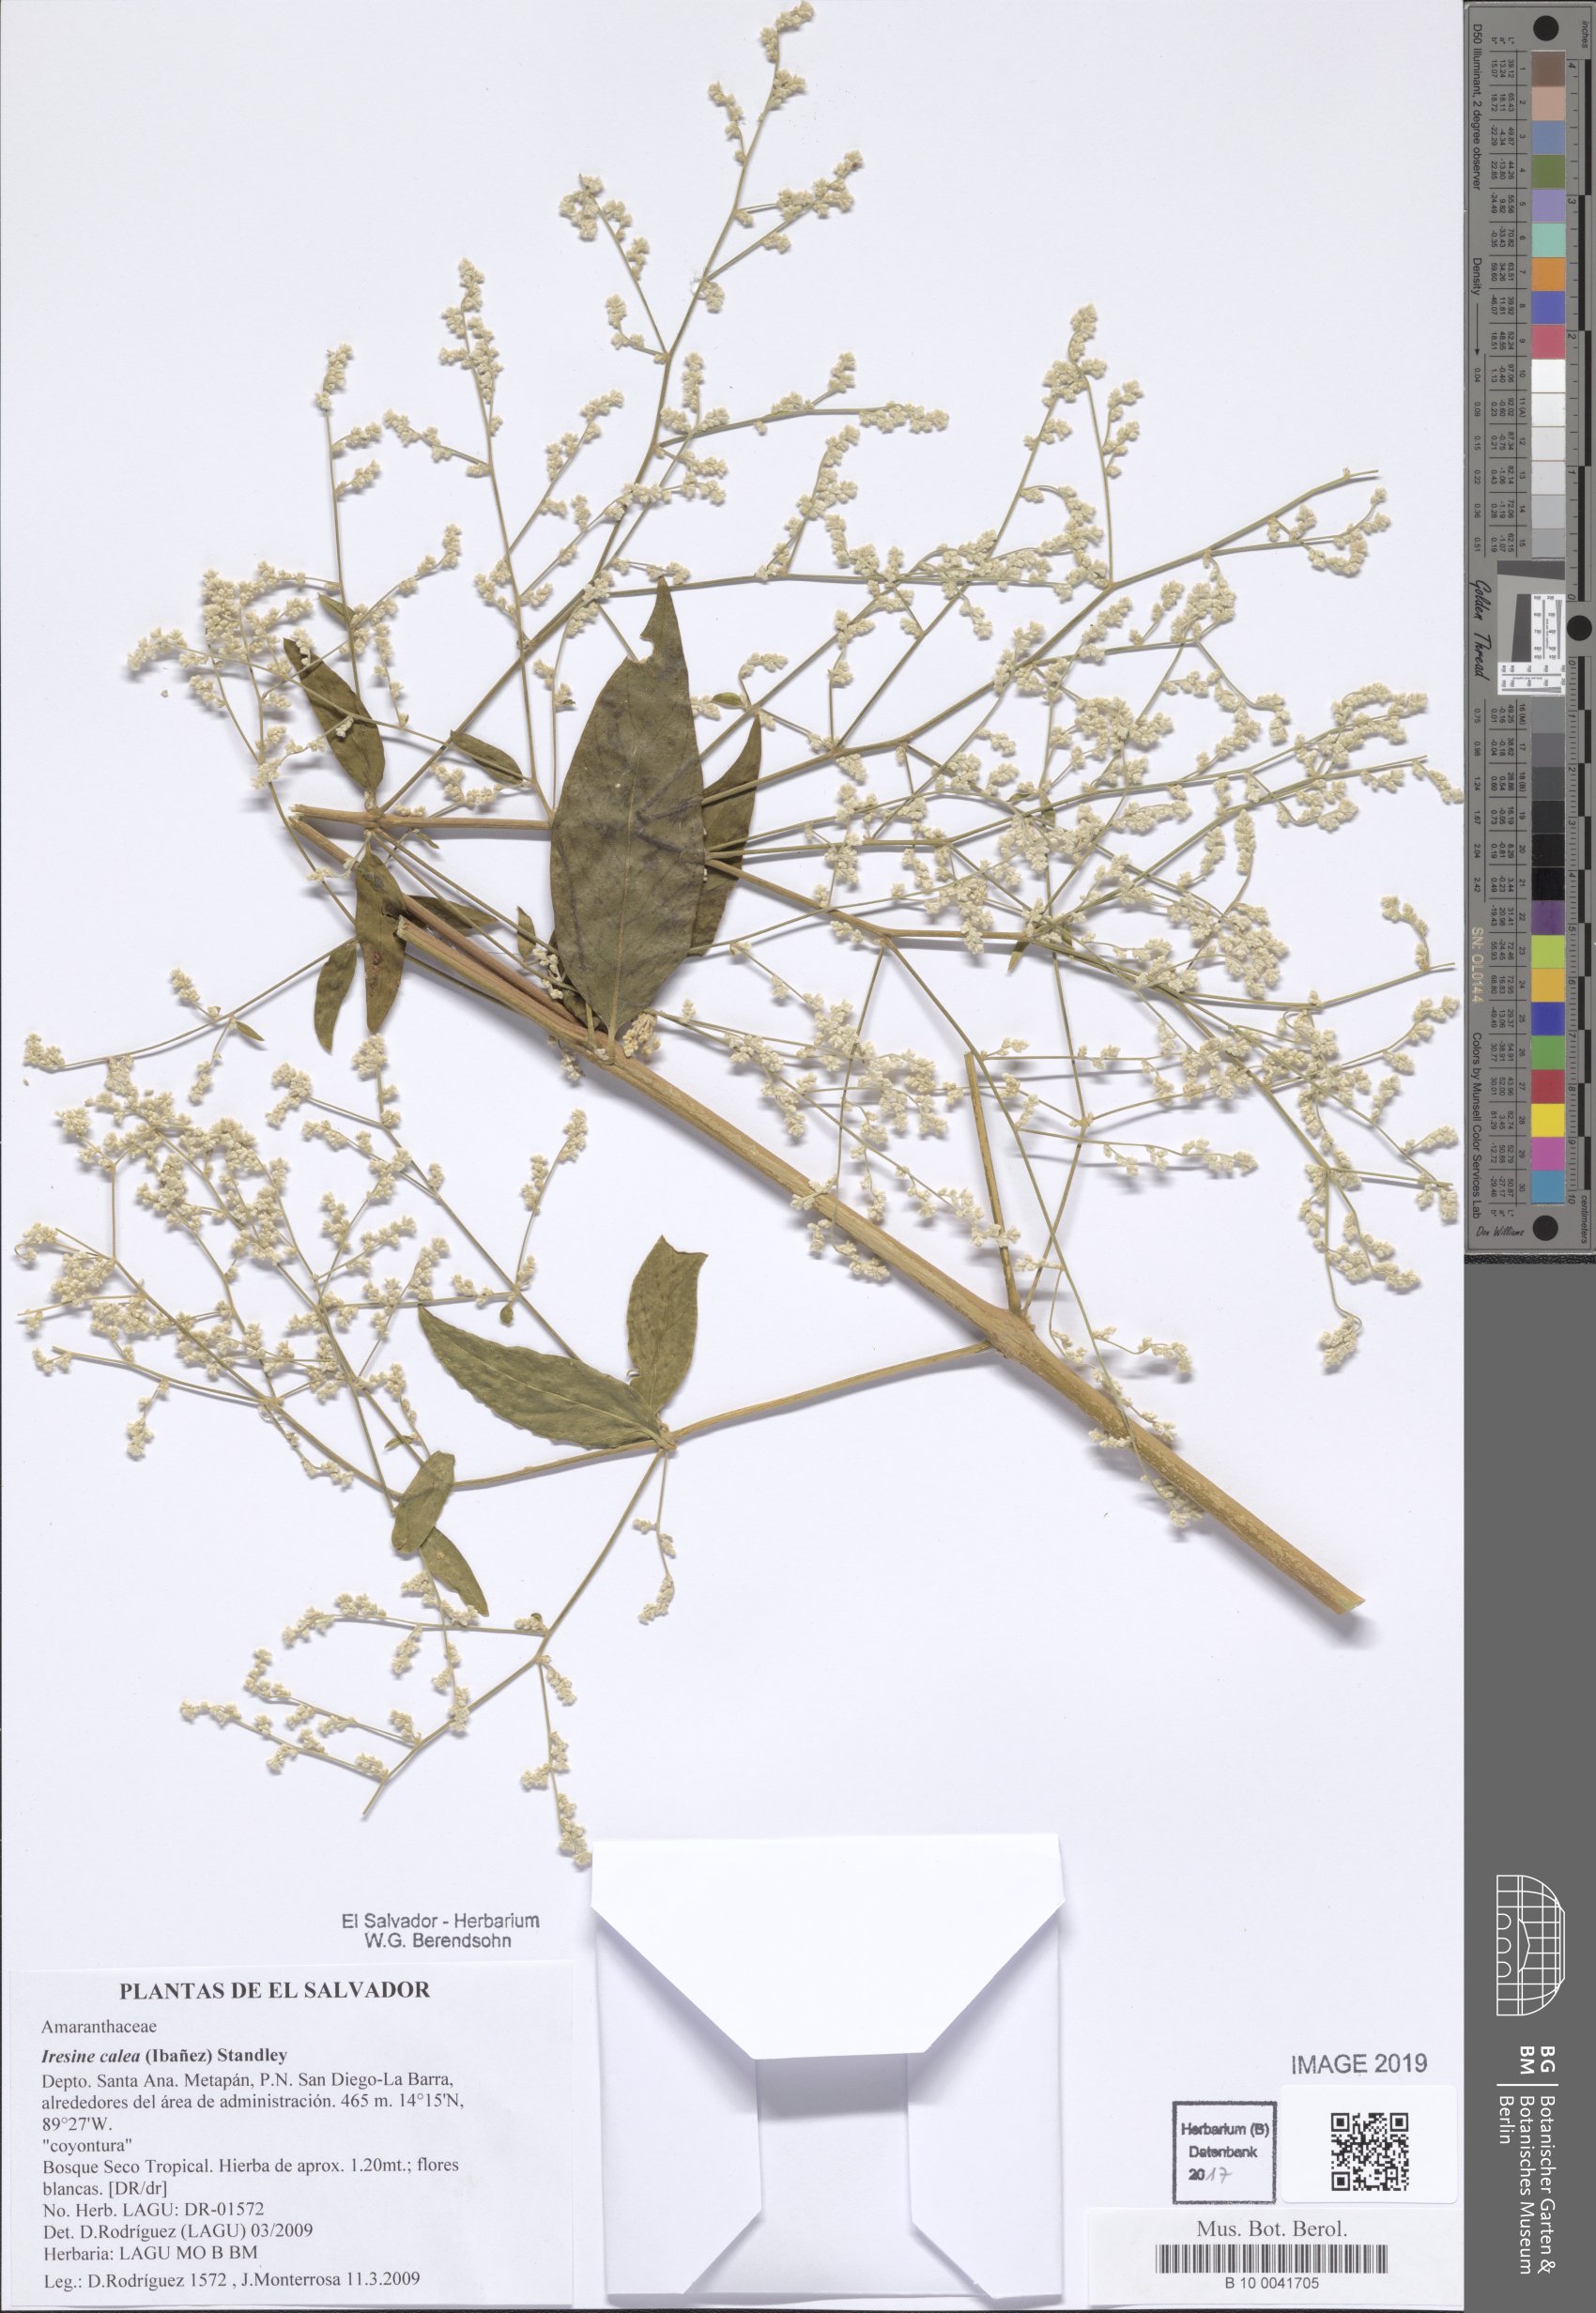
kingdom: Plantae
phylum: Tracheophyta
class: Magnoliopsida
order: Caryophyllales
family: Amaranthaceae
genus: Iresine
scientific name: Iresine latifolia
